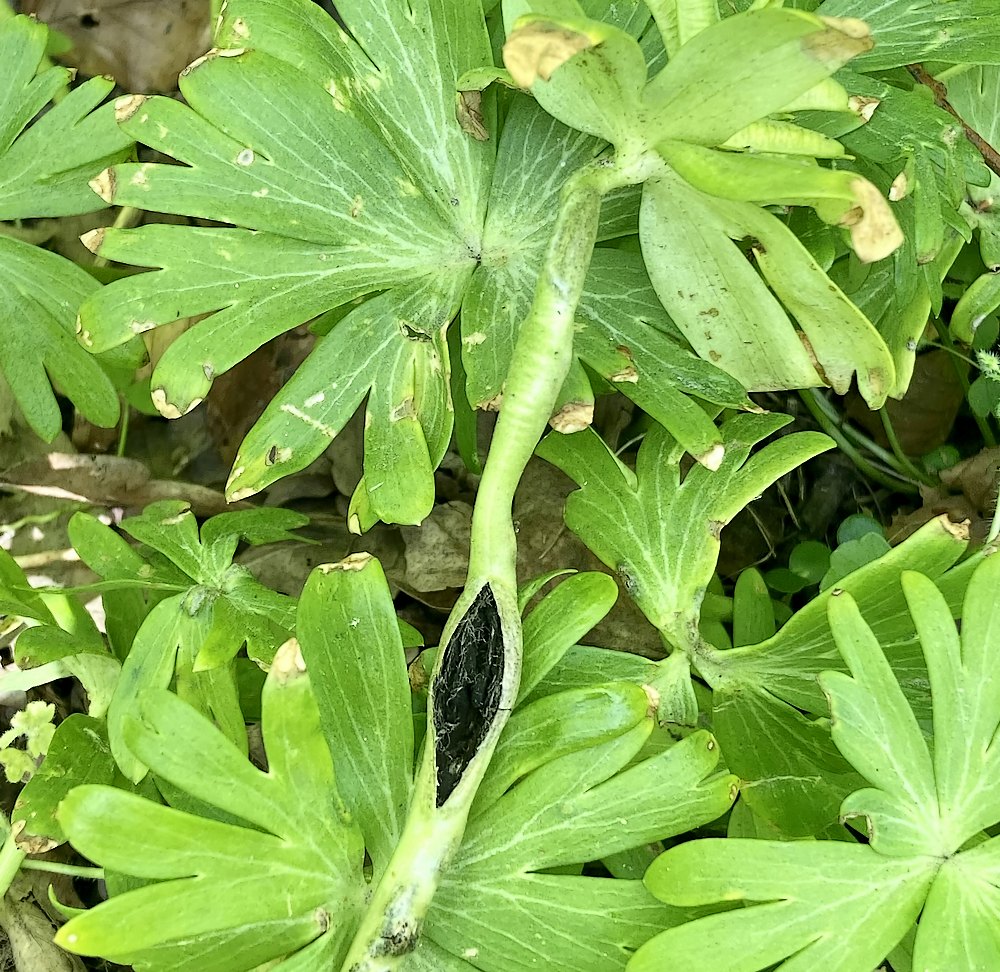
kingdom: Fungi
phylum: Basidiomycota
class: Ustilaginomycetes
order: Urocystidales
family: Urocystidaceae
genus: Urocystis
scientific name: Urocystis eranthidis
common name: erantis-brand
